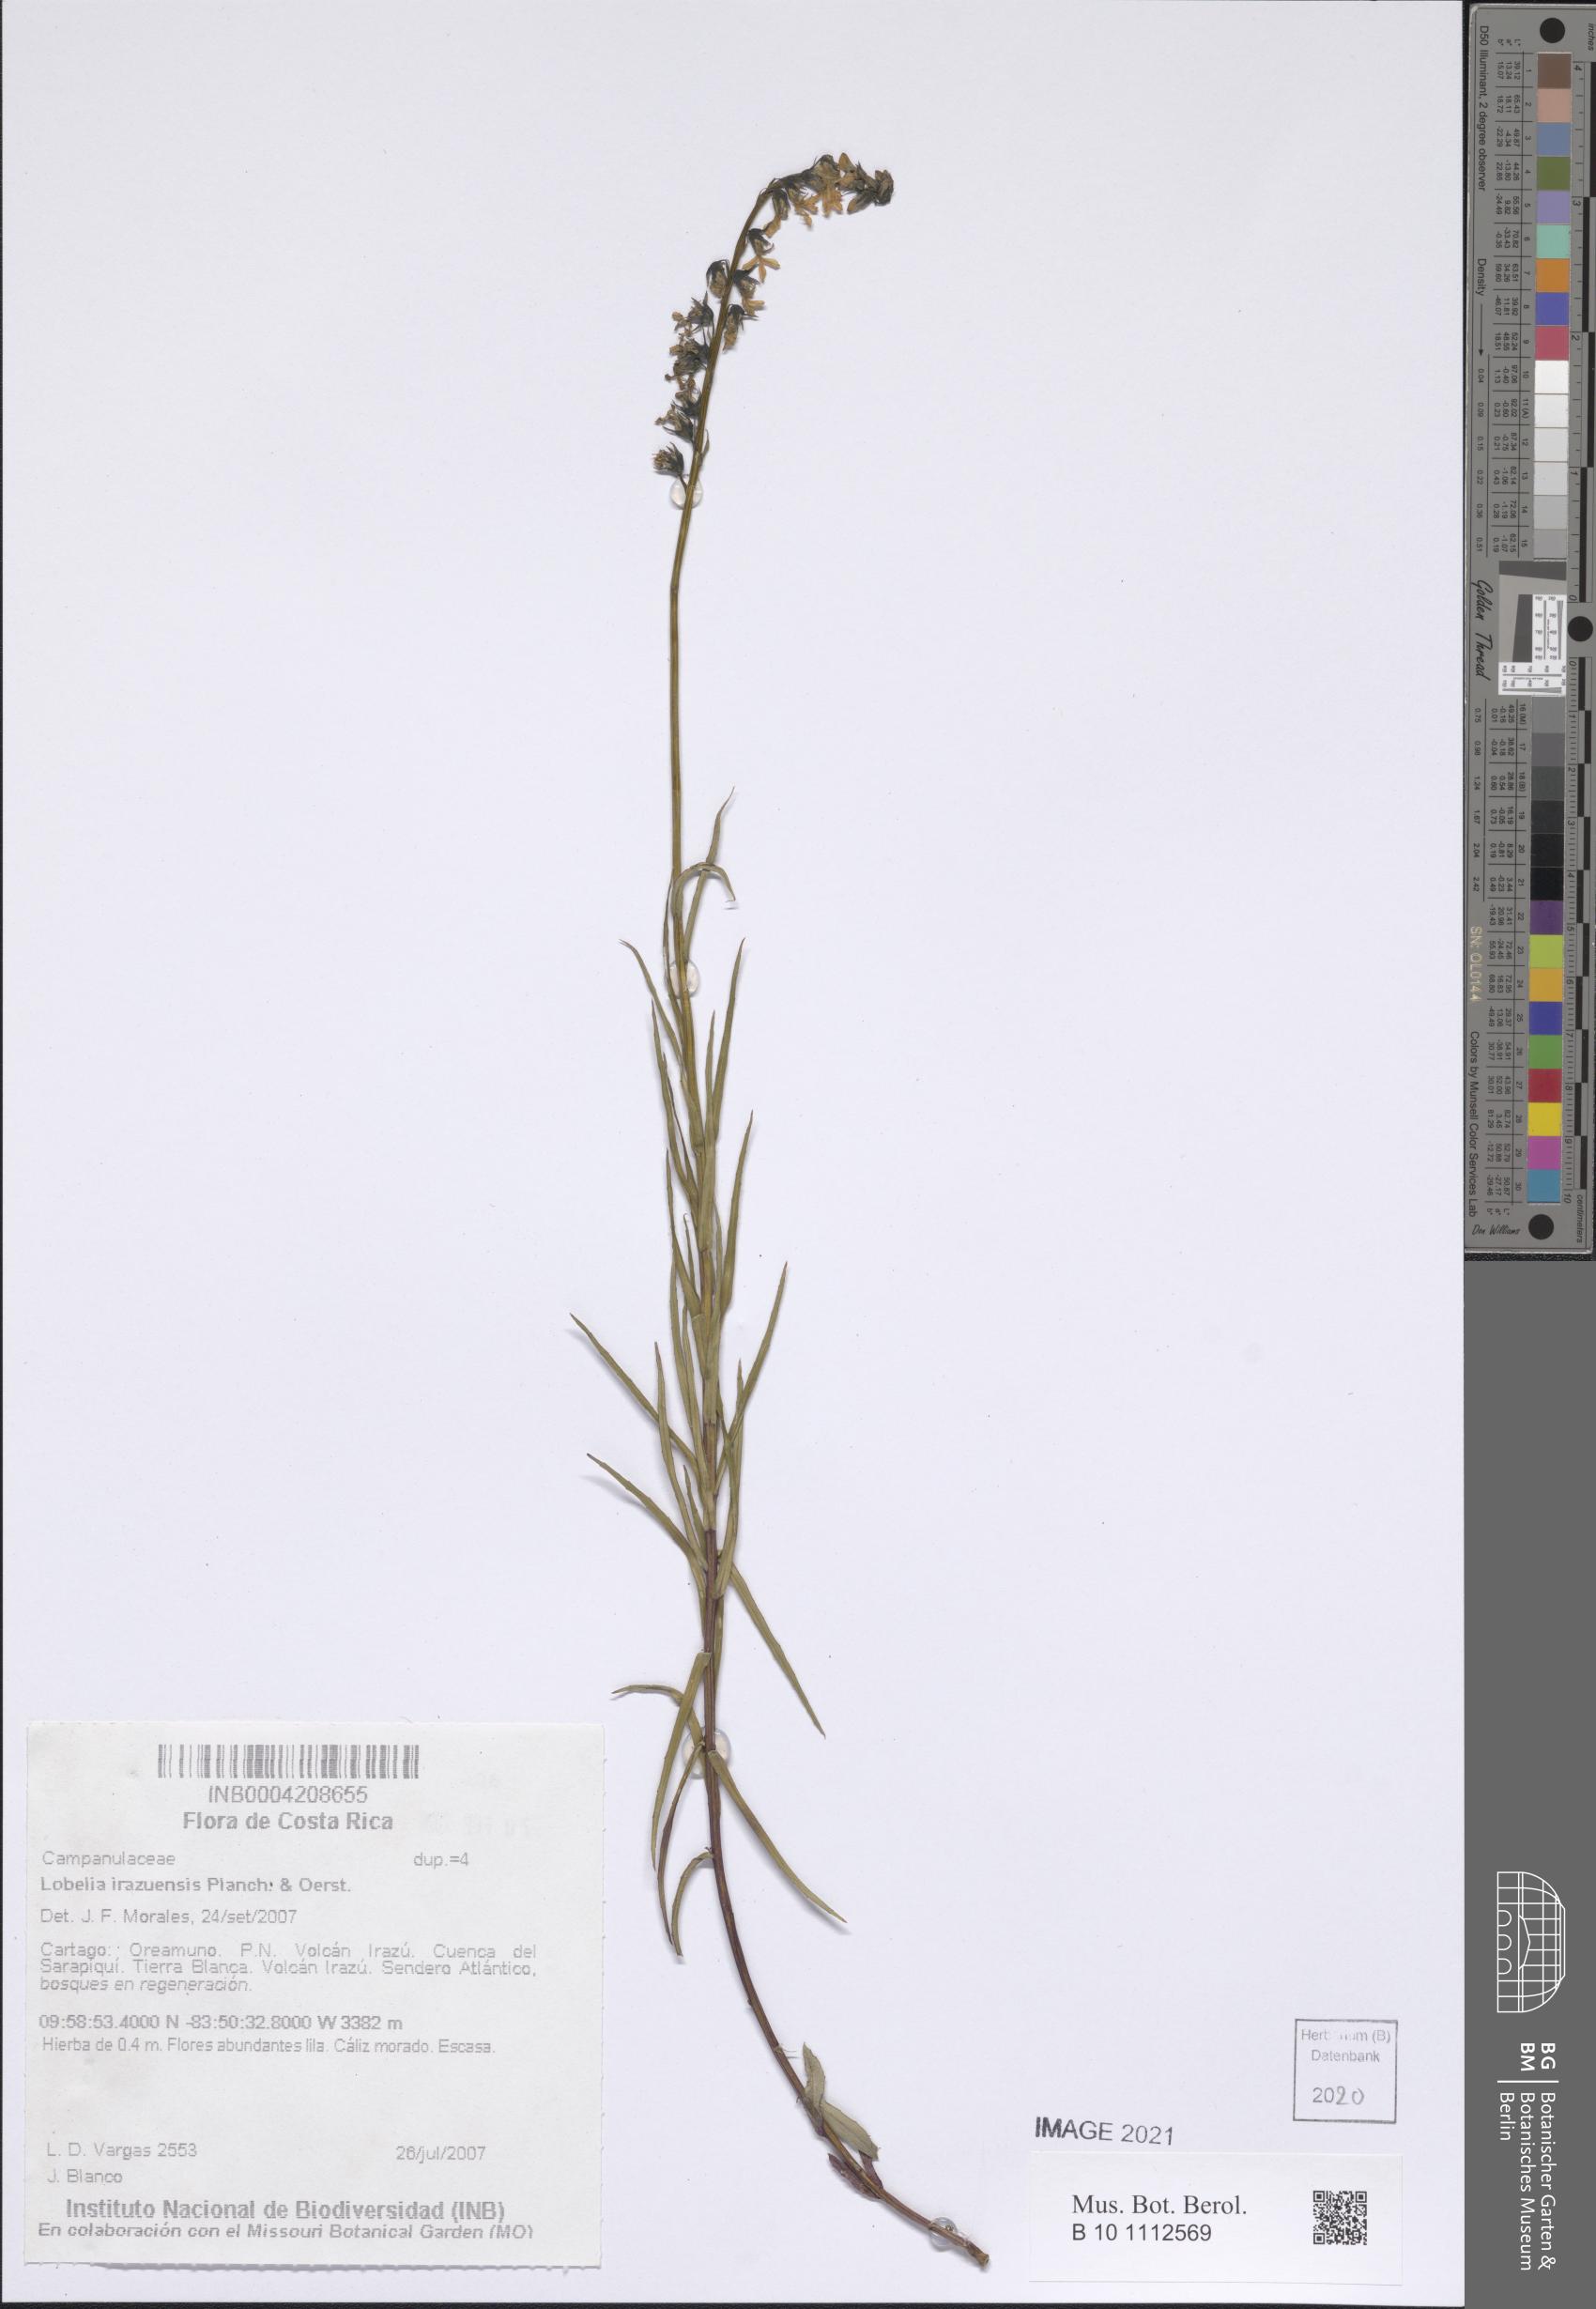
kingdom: Plantae
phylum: Tracheophyta
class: Magnoliopsida
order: Asterales
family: Campanulaceae
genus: Lobelia
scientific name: Lobelia irasuensis
